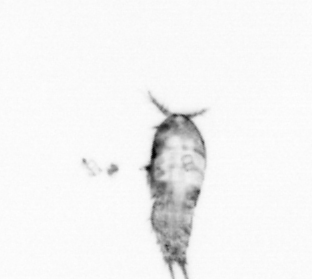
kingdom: Animalia
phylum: Arthropoda
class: Copepoda
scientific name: Copepoda
